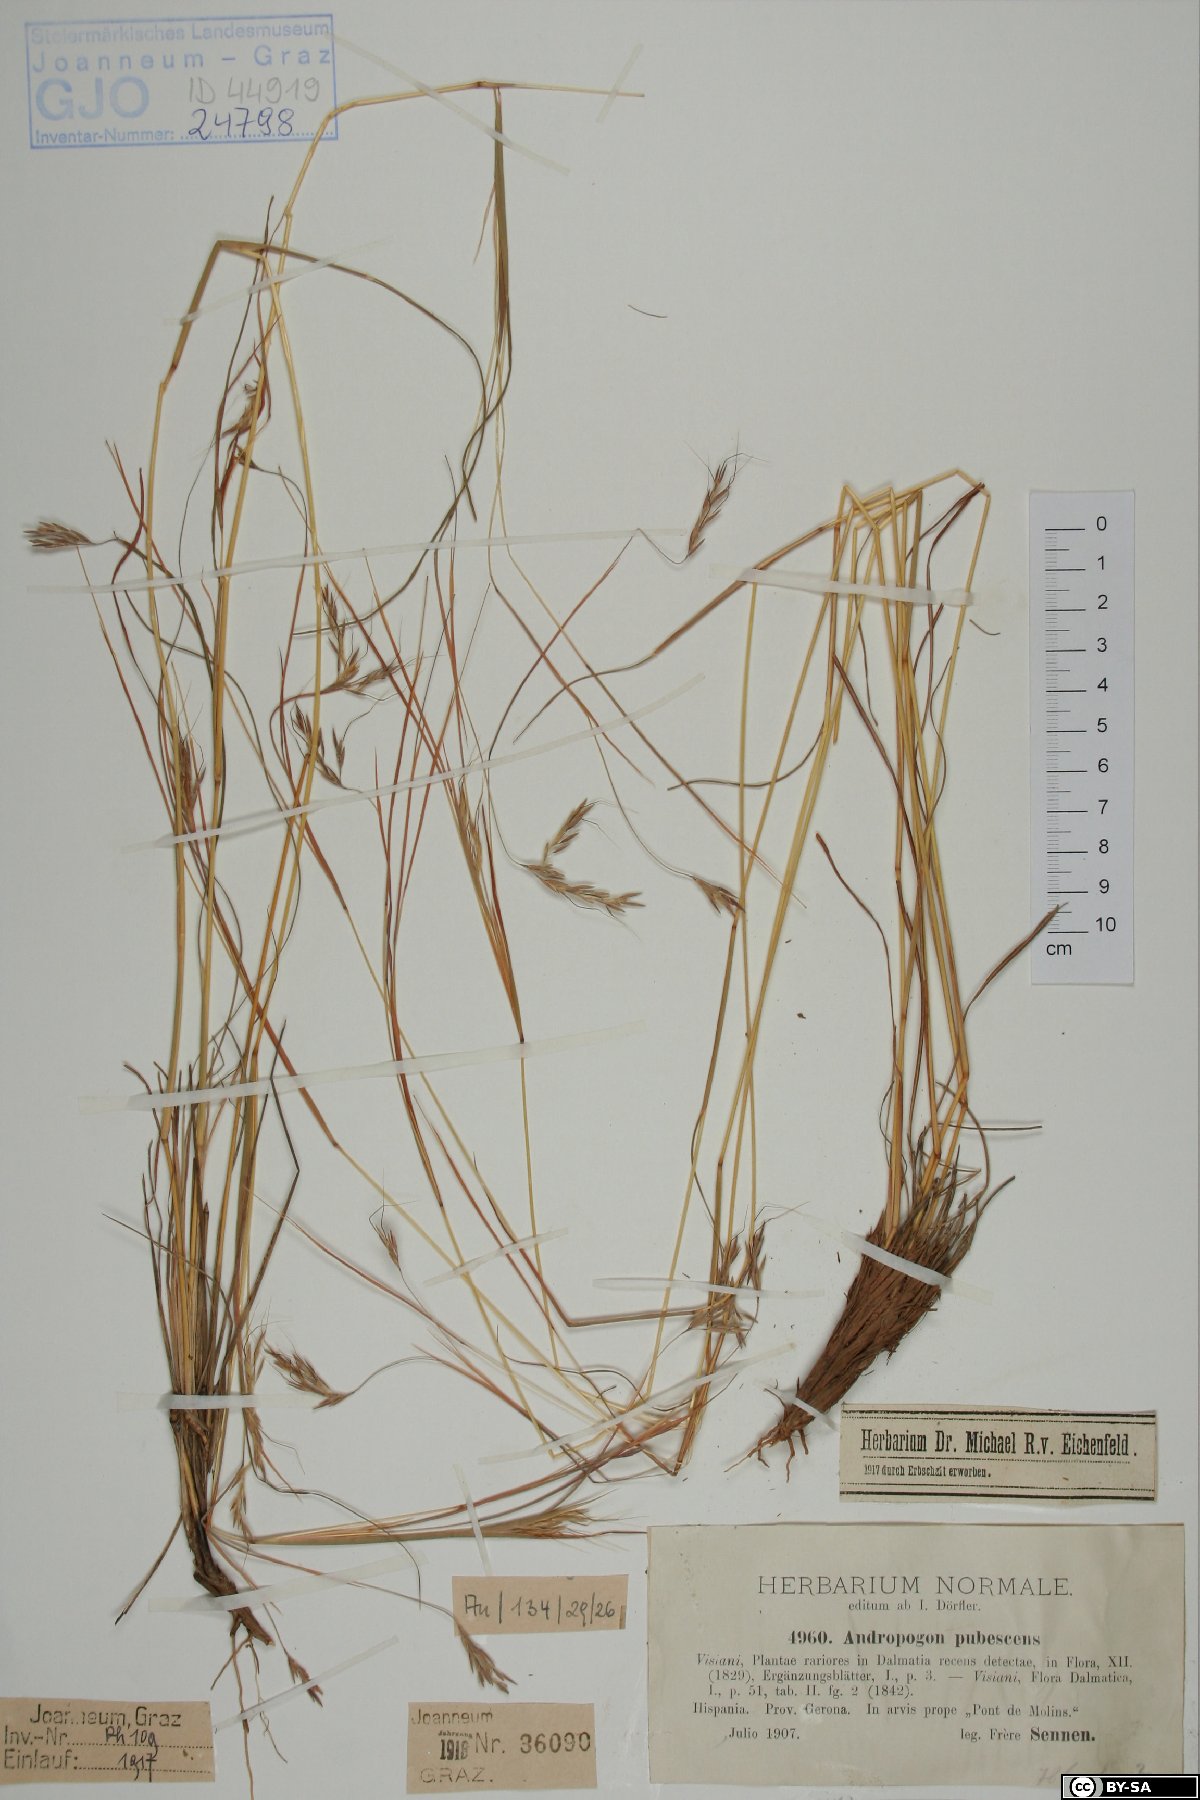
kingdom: Plantae
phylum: Tracheophyta
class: Liliopsida
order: Poales
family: Poaceae
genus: Hyparrhenia
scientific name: Hyparrhenia hirta
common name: Thatching grass
